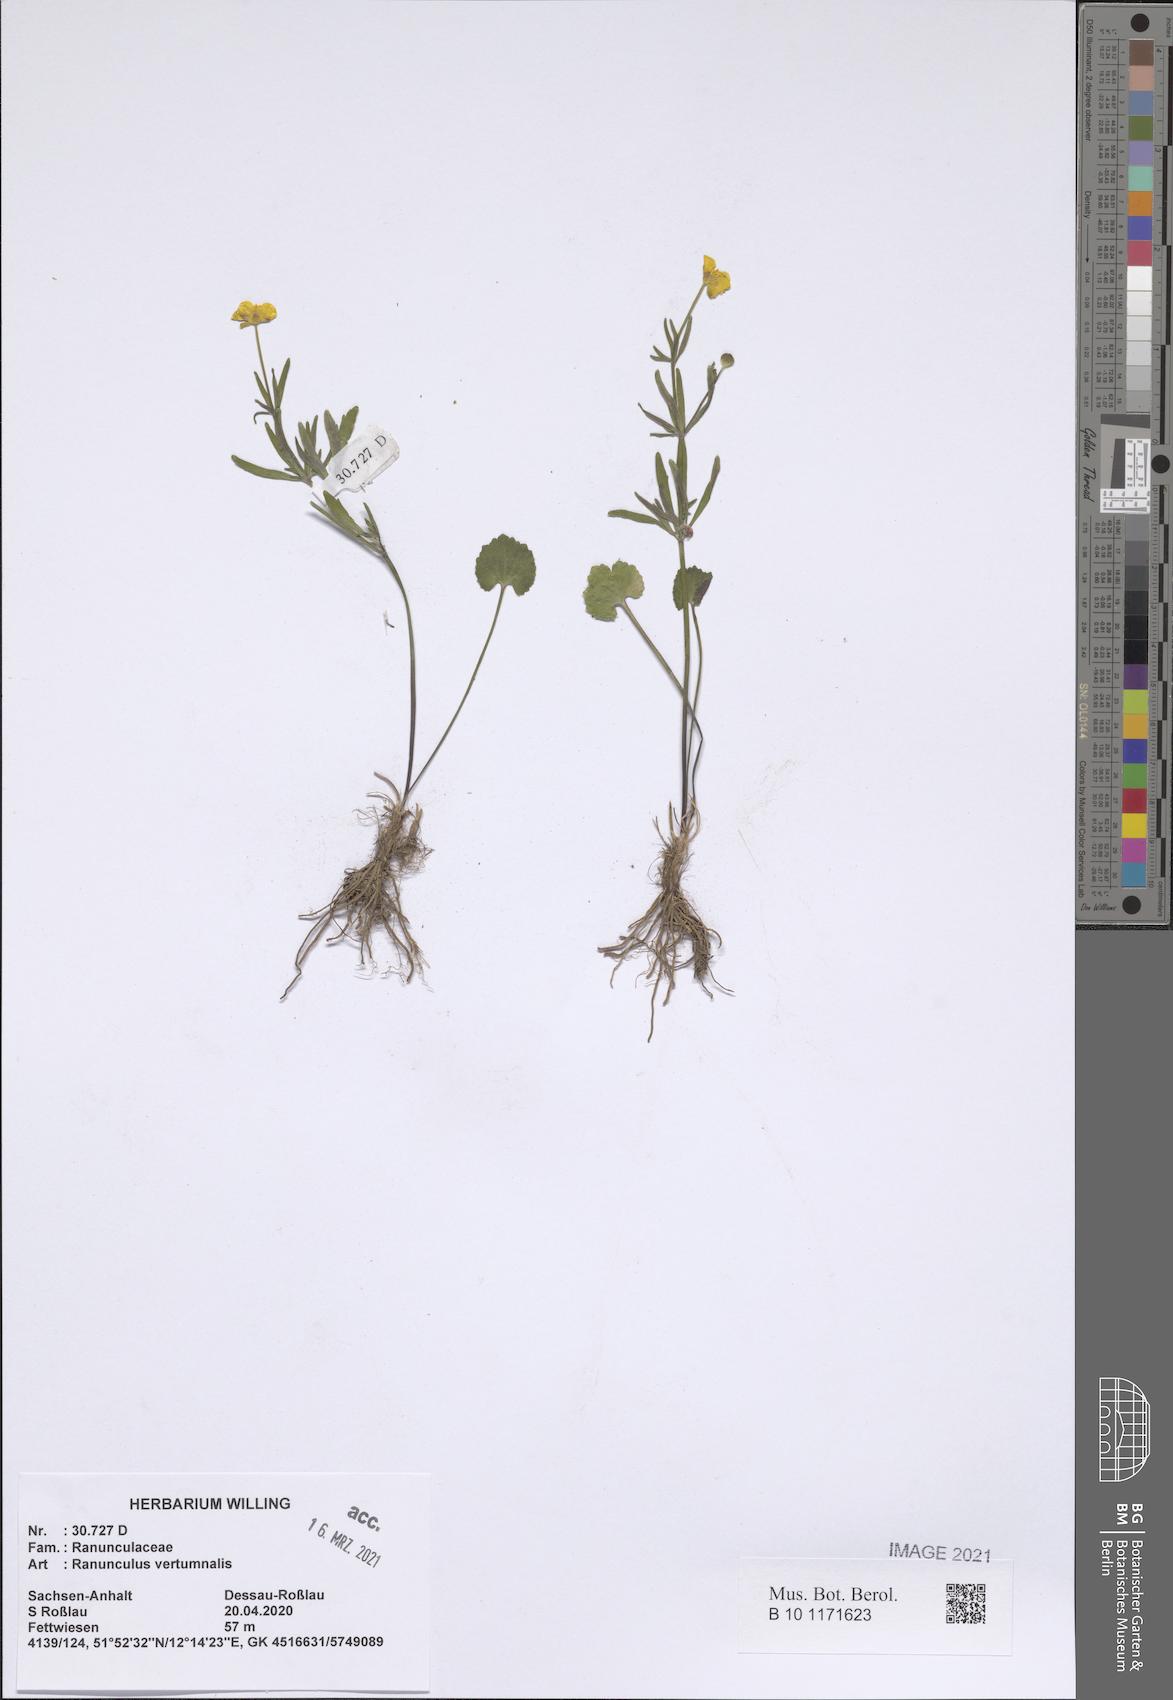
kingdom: Plantae
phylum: Tracheophyta
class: Magnoliopsida
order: Ranunculales
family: Ranunculaceae
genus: Ranunculus
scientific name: Ranunculus vertumnalis
